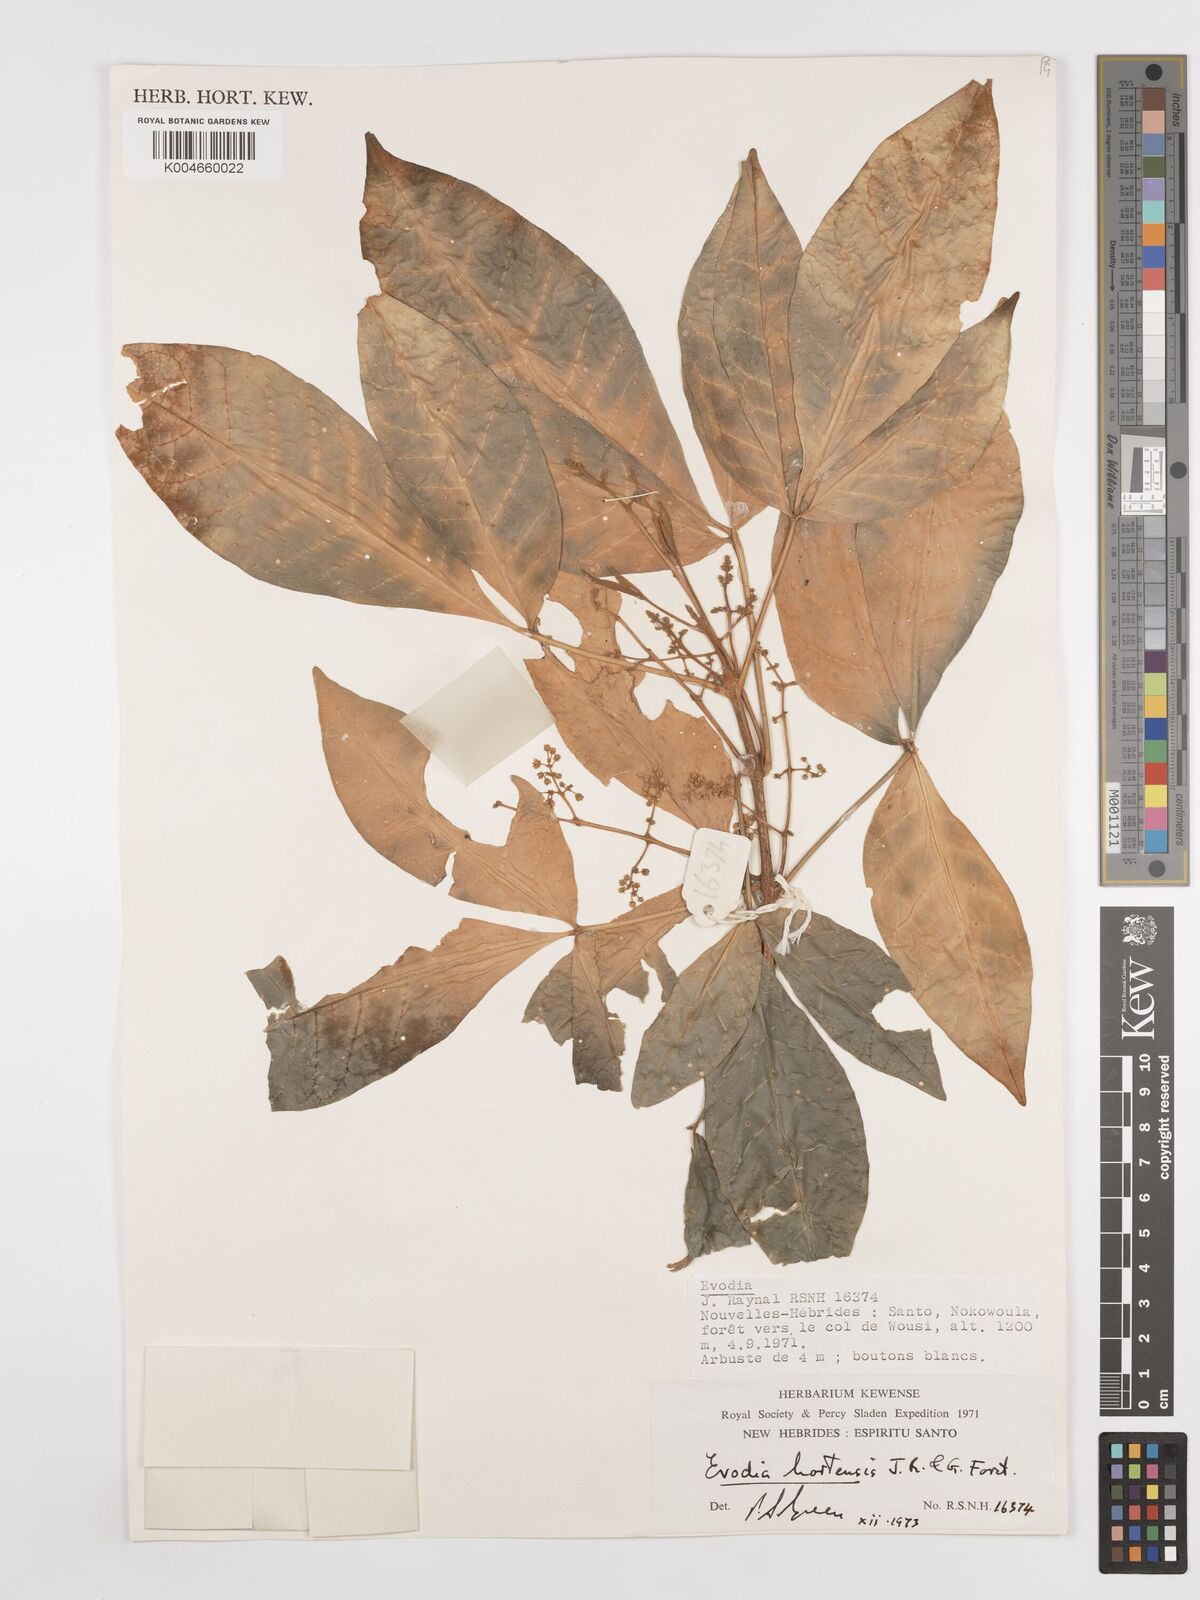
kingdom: Plantae
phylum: Tracheophyta
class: Magnoliopsida
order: Sapindales
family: Rutaceae
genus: Euodia
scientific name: Euodia hortensis
